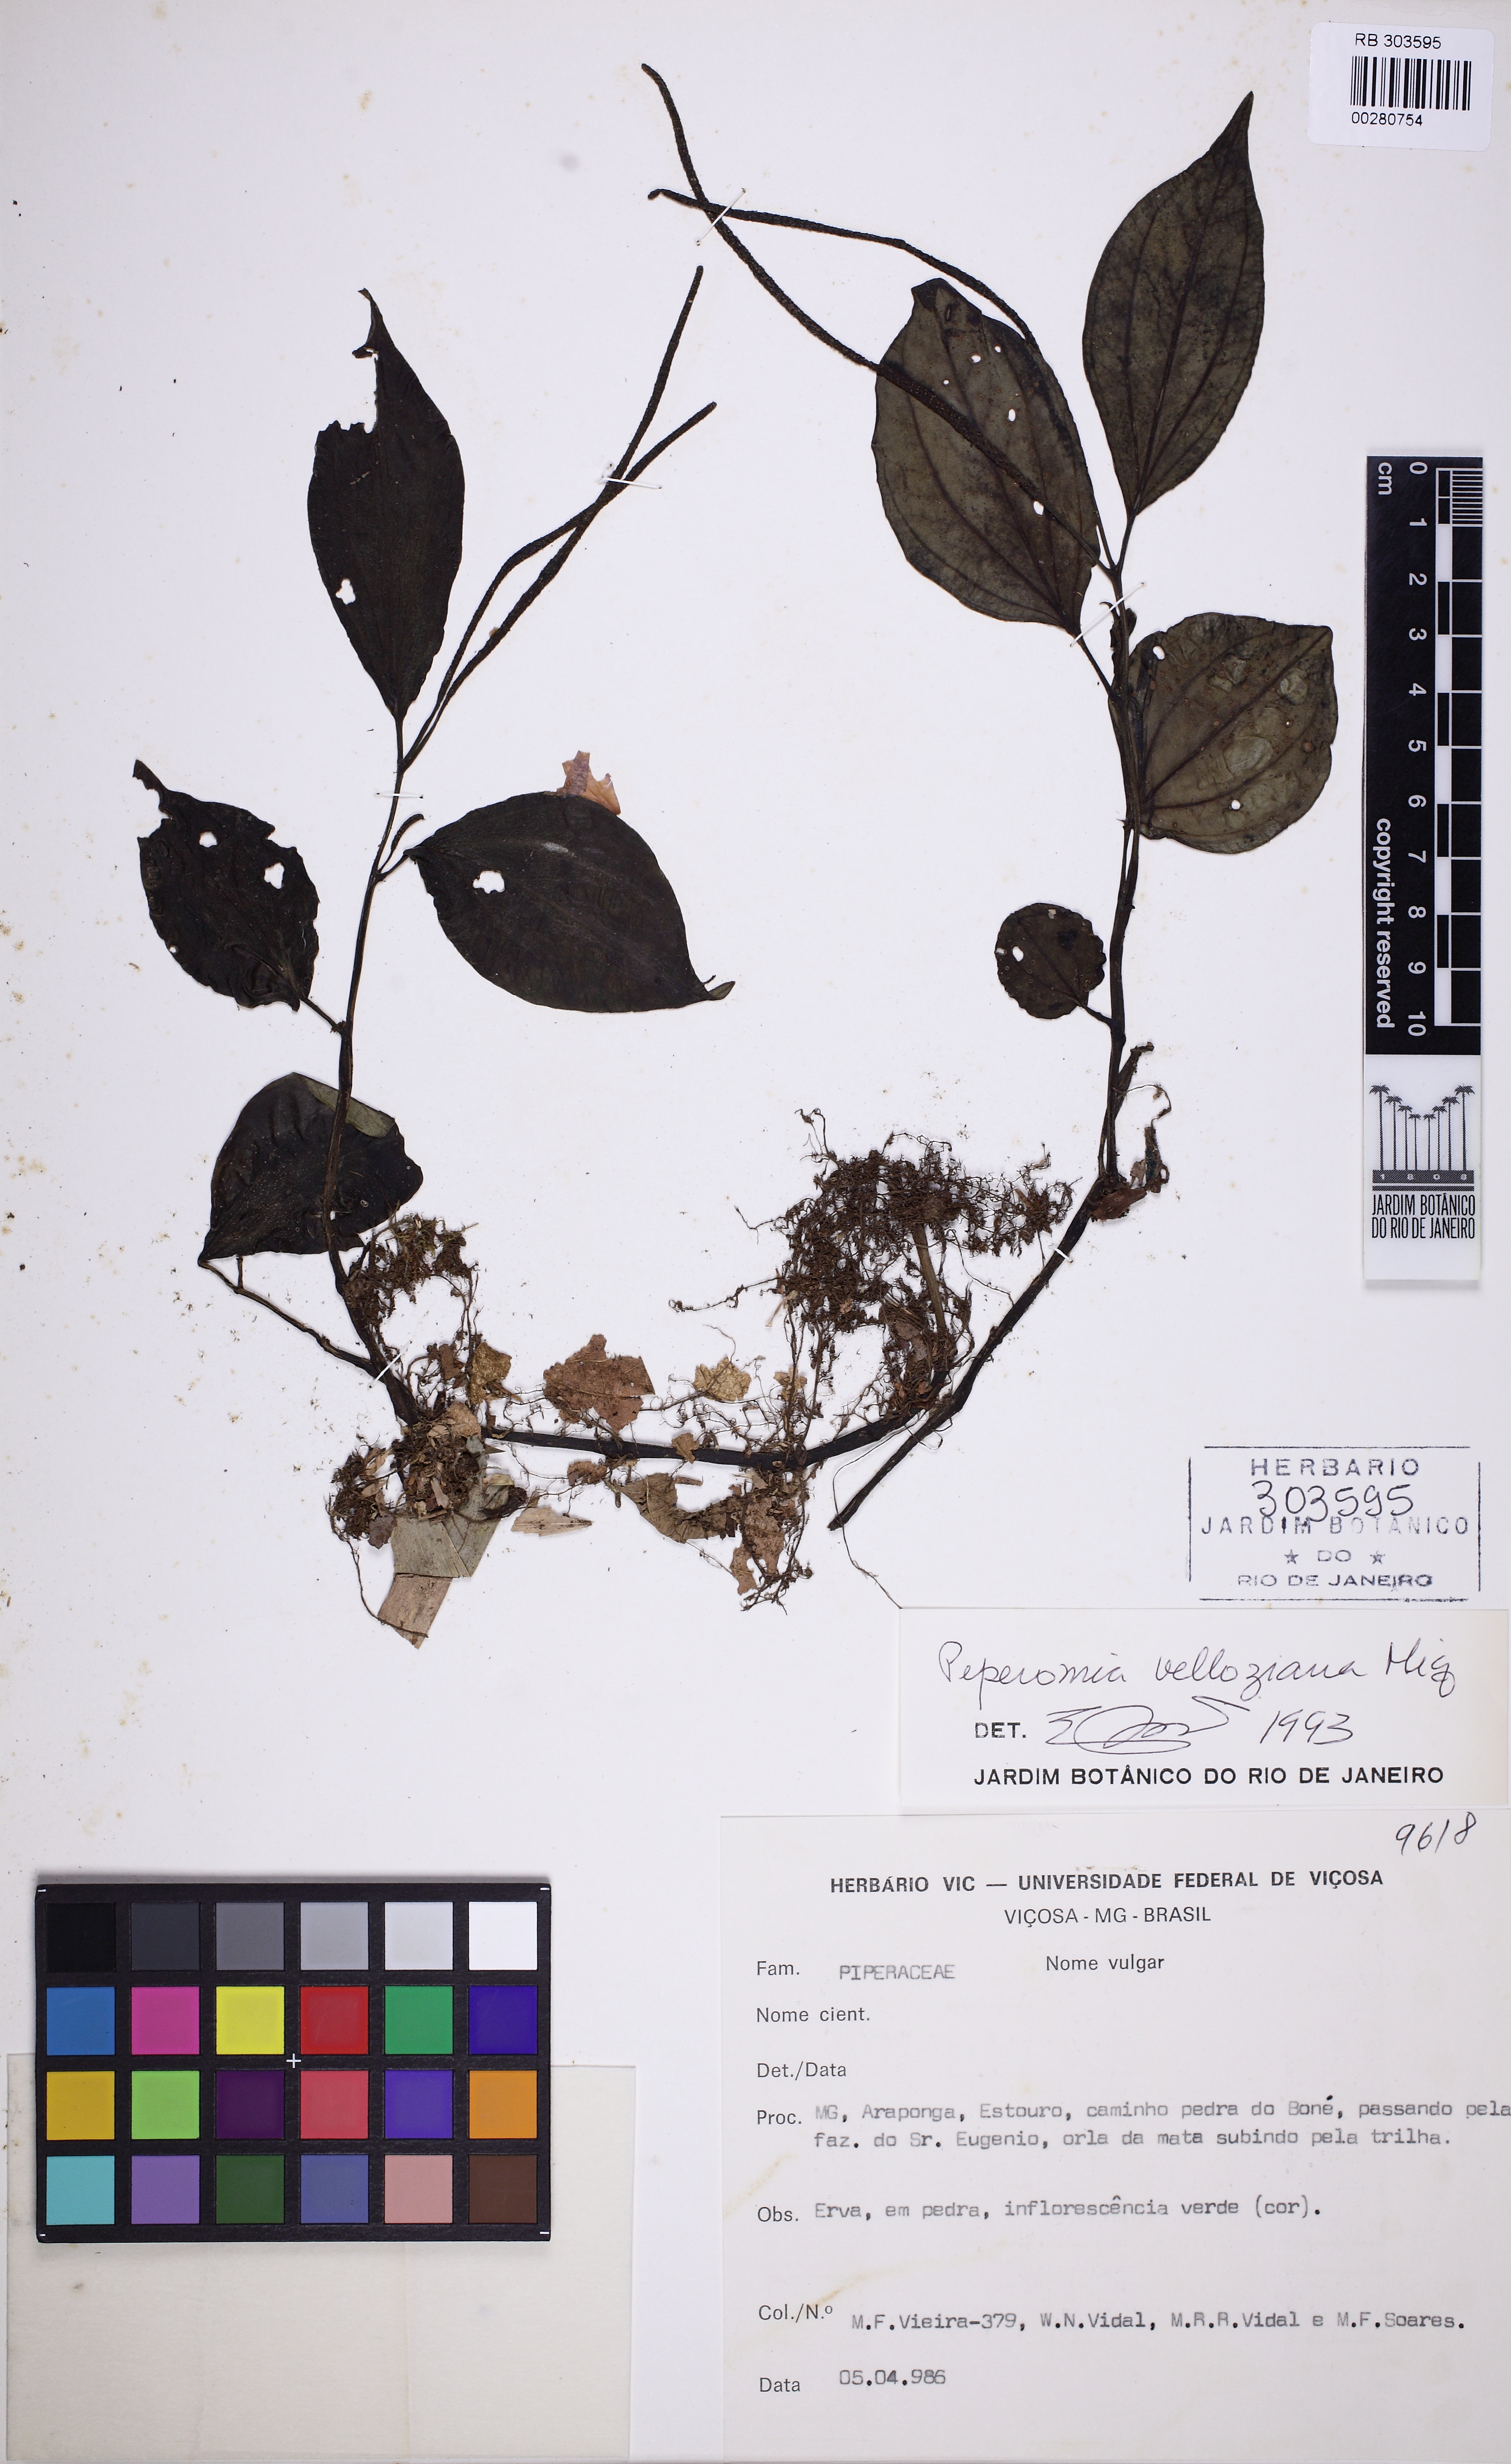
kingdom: Plantae
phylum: Tracheophyta
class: Magnoliopsida
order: Piperales
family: Piperaceae
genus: Peperomia
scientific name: Peperomia velloziana
